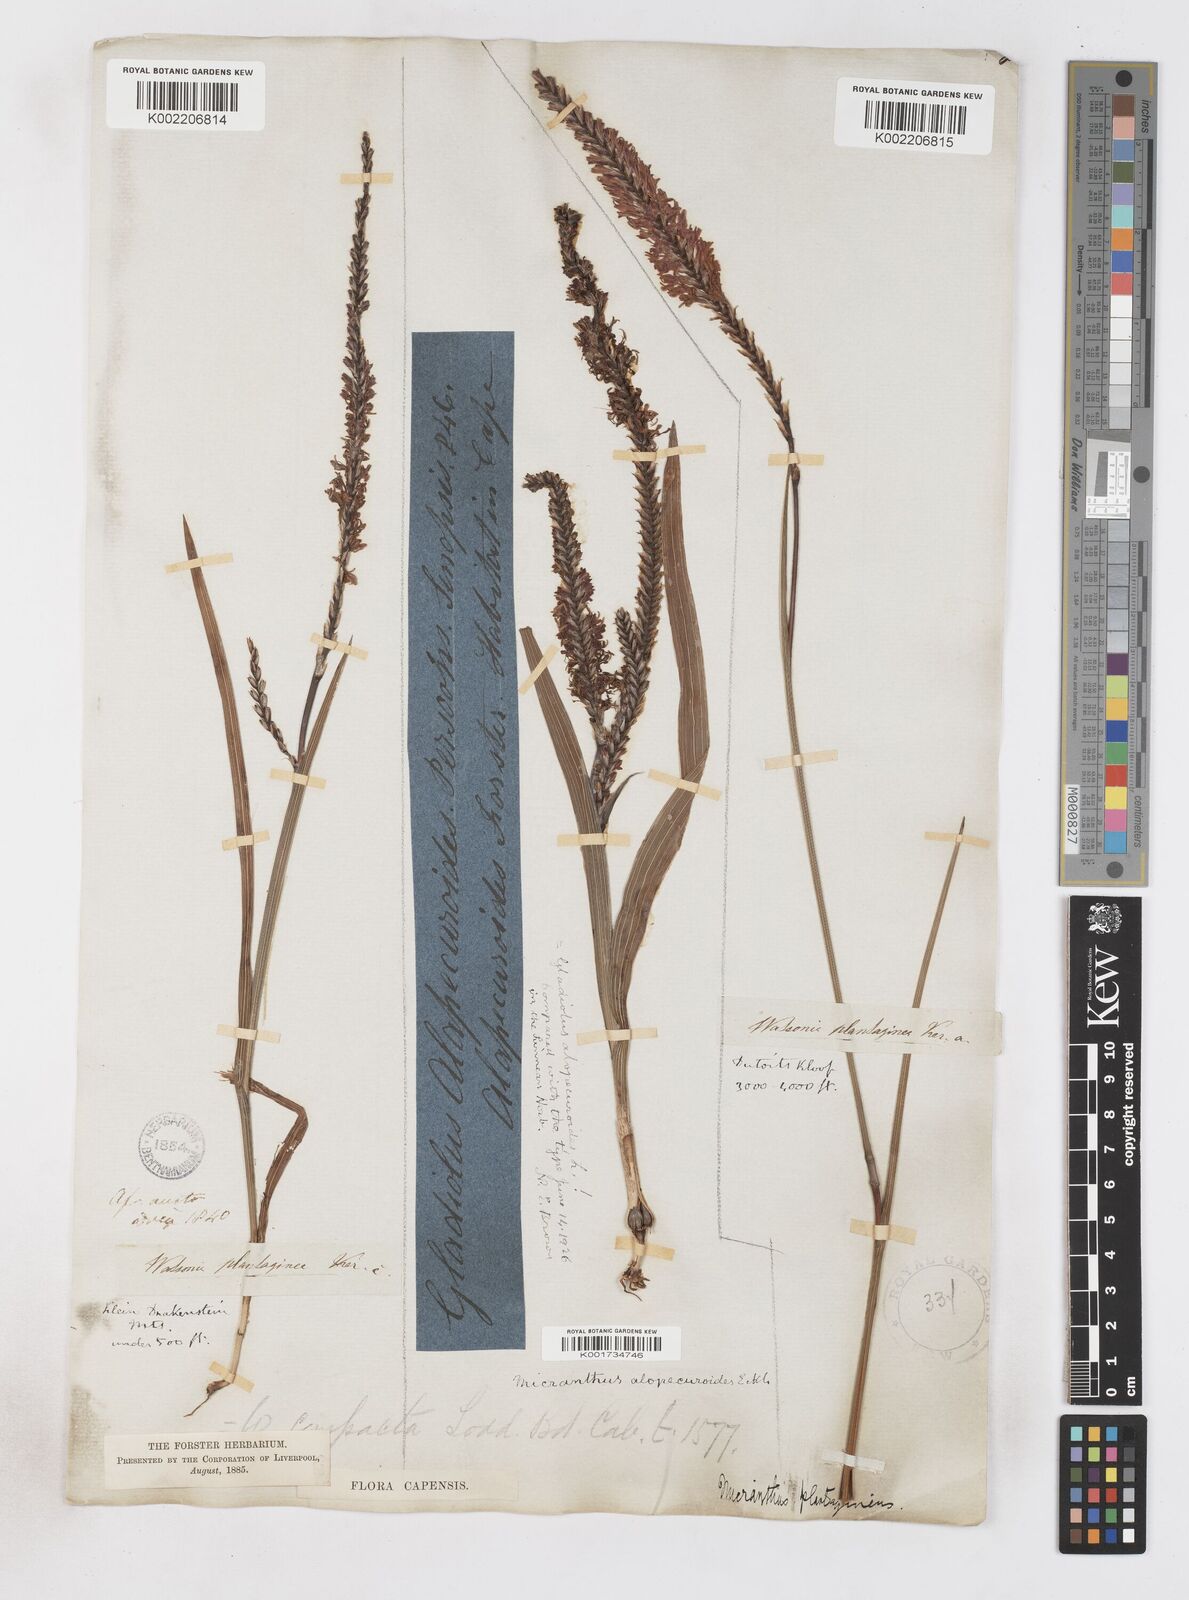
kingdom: Plantae
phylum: Tracheophyta
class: Liliopsida
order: Asparagales
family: Iridaceae
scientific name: Iridaceae
